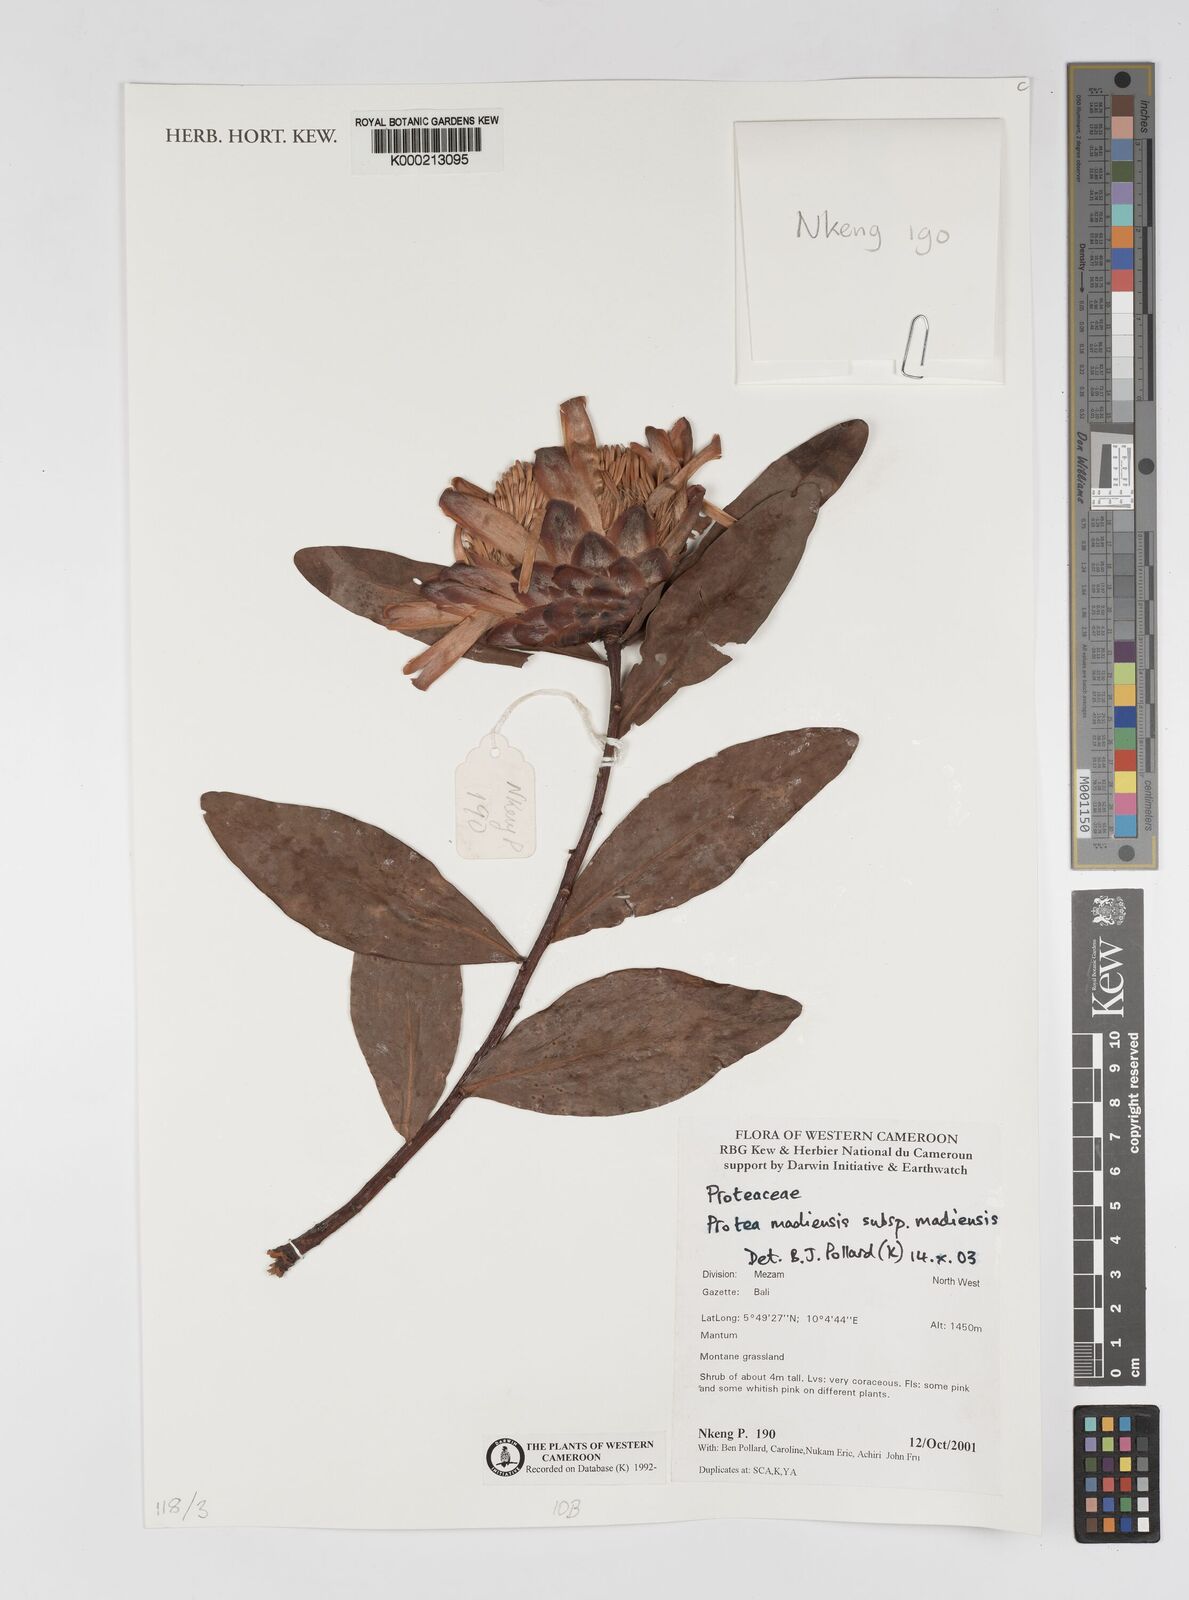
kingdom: Plantae
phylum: Tracheophyta
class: Magnoliopsida
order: Proteales
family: Proteaceae
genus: Protea
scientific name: Protea madiensis
